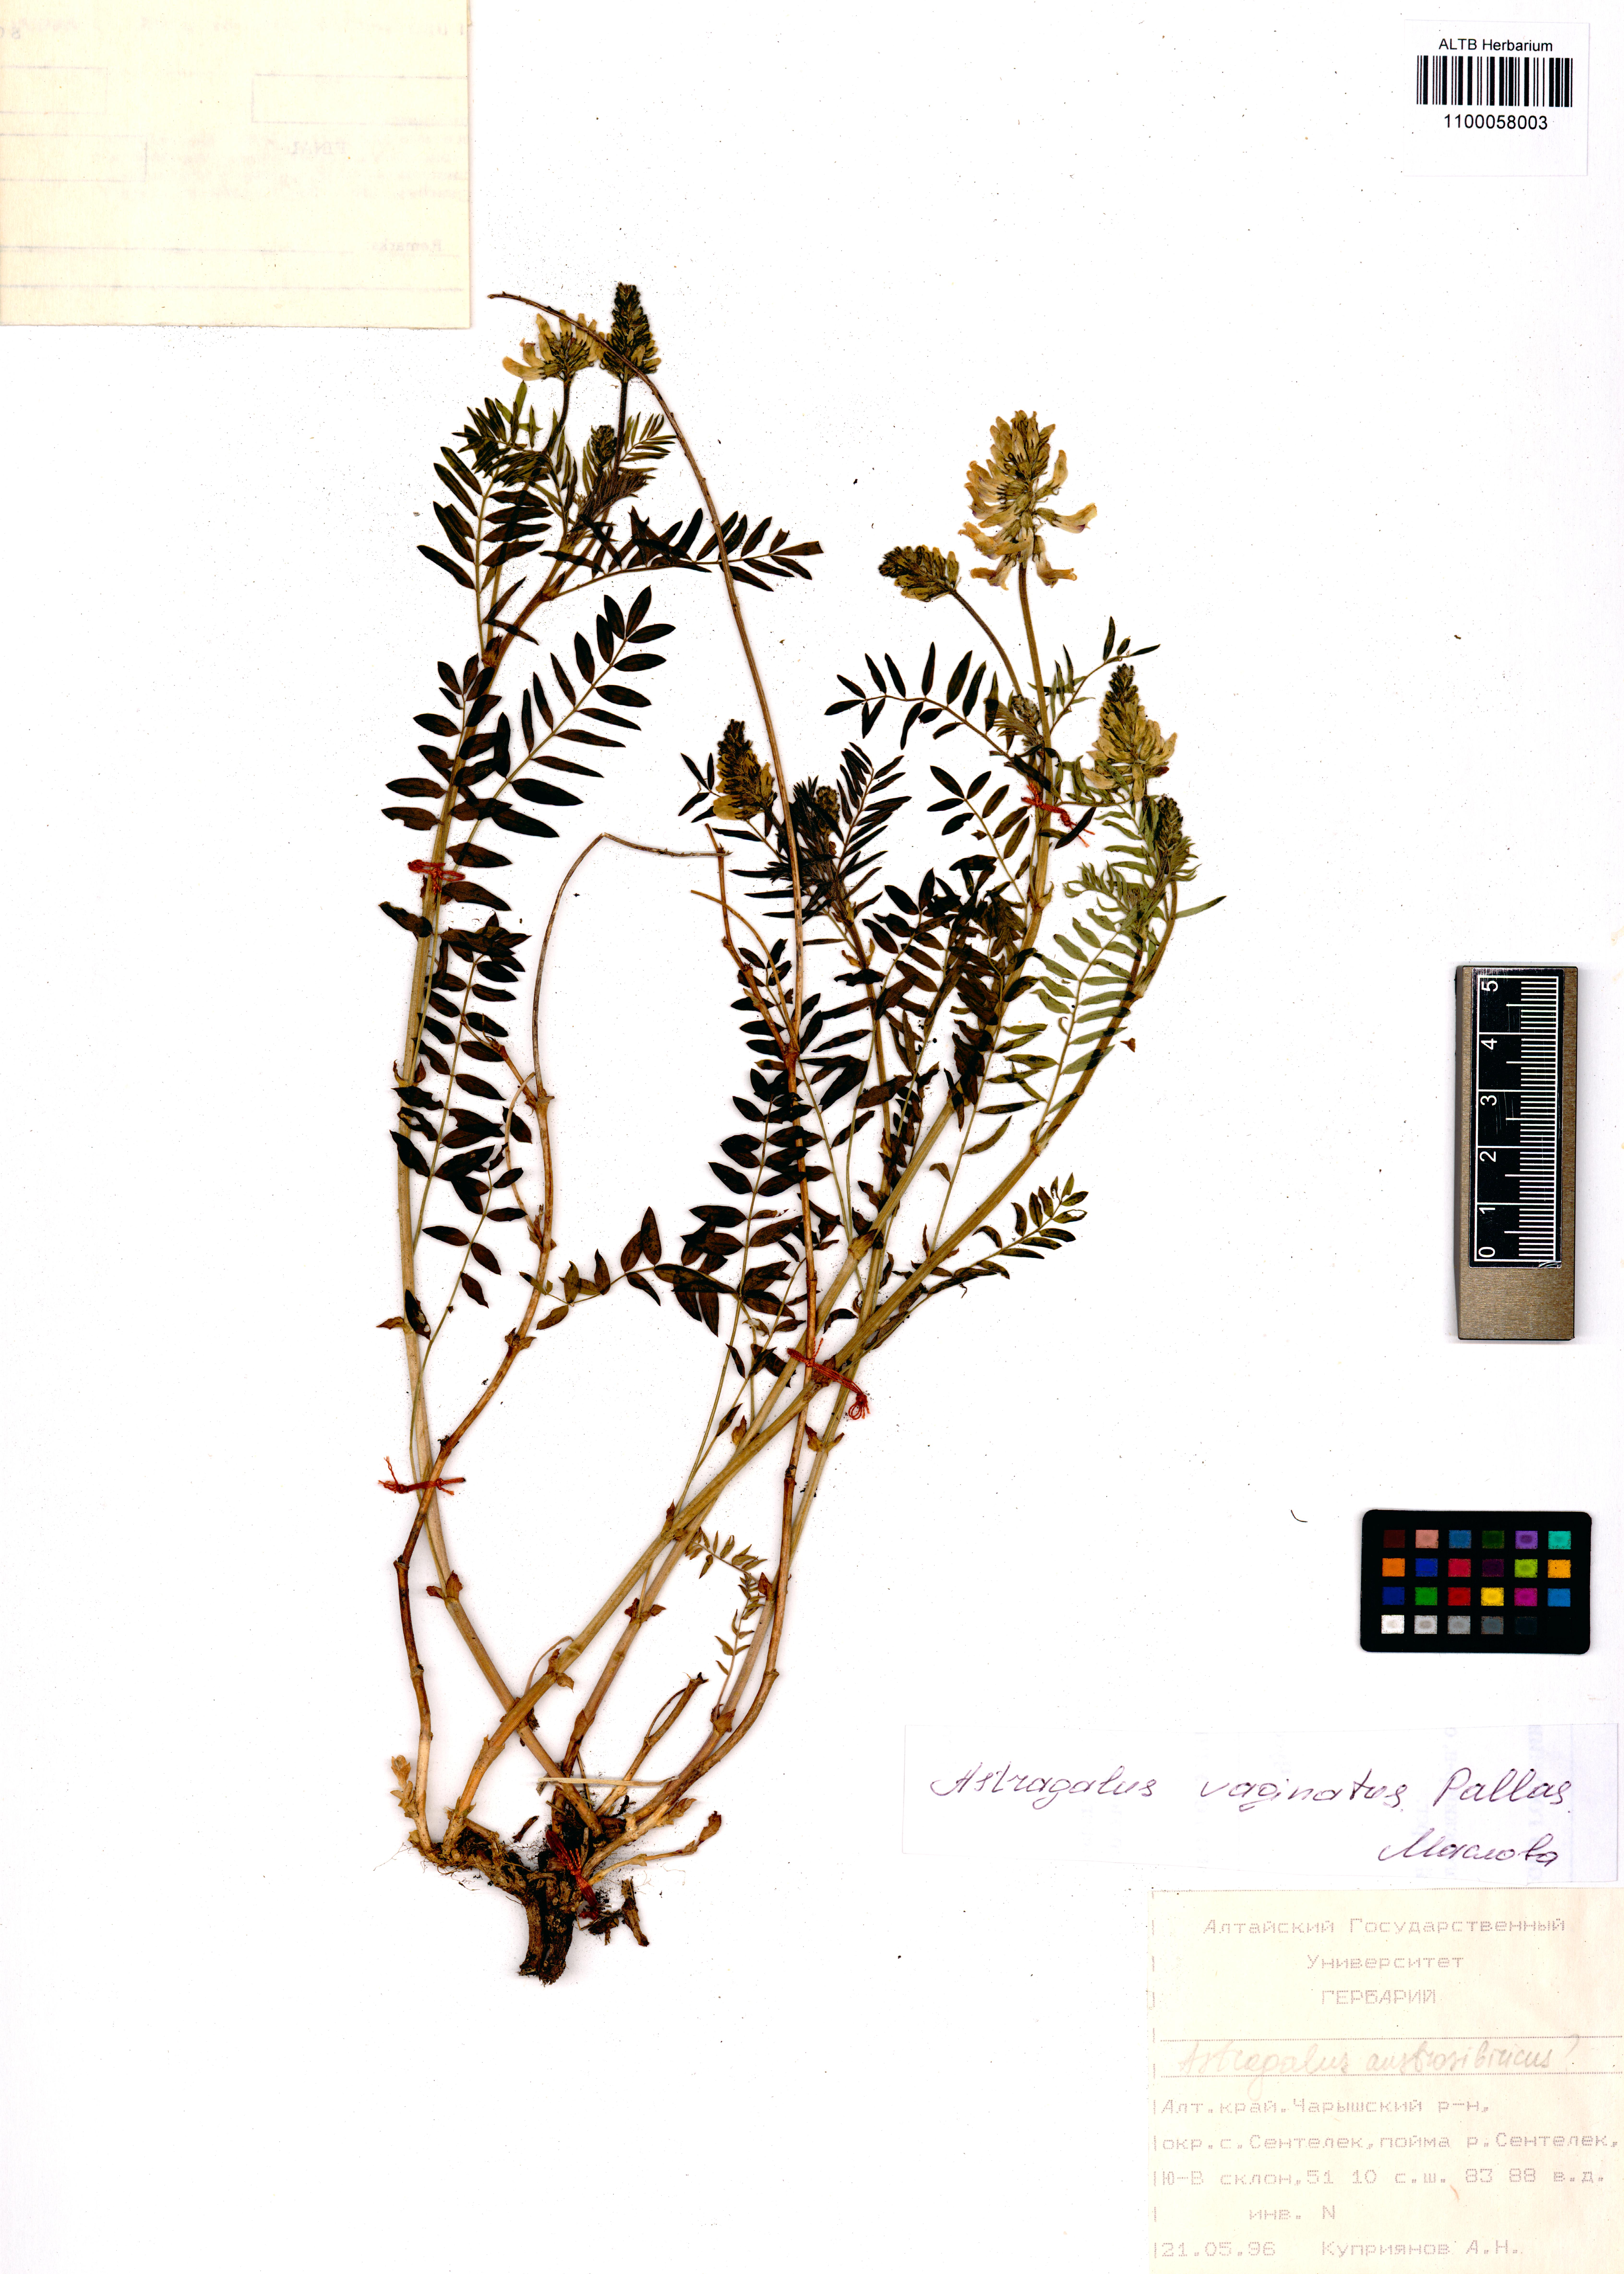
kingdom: Plantae
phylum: Tracheophyta
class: Magnoliopsida
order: Fabales
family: Fabaceae
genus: Astragalus
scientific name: Astragalus vaginatus
